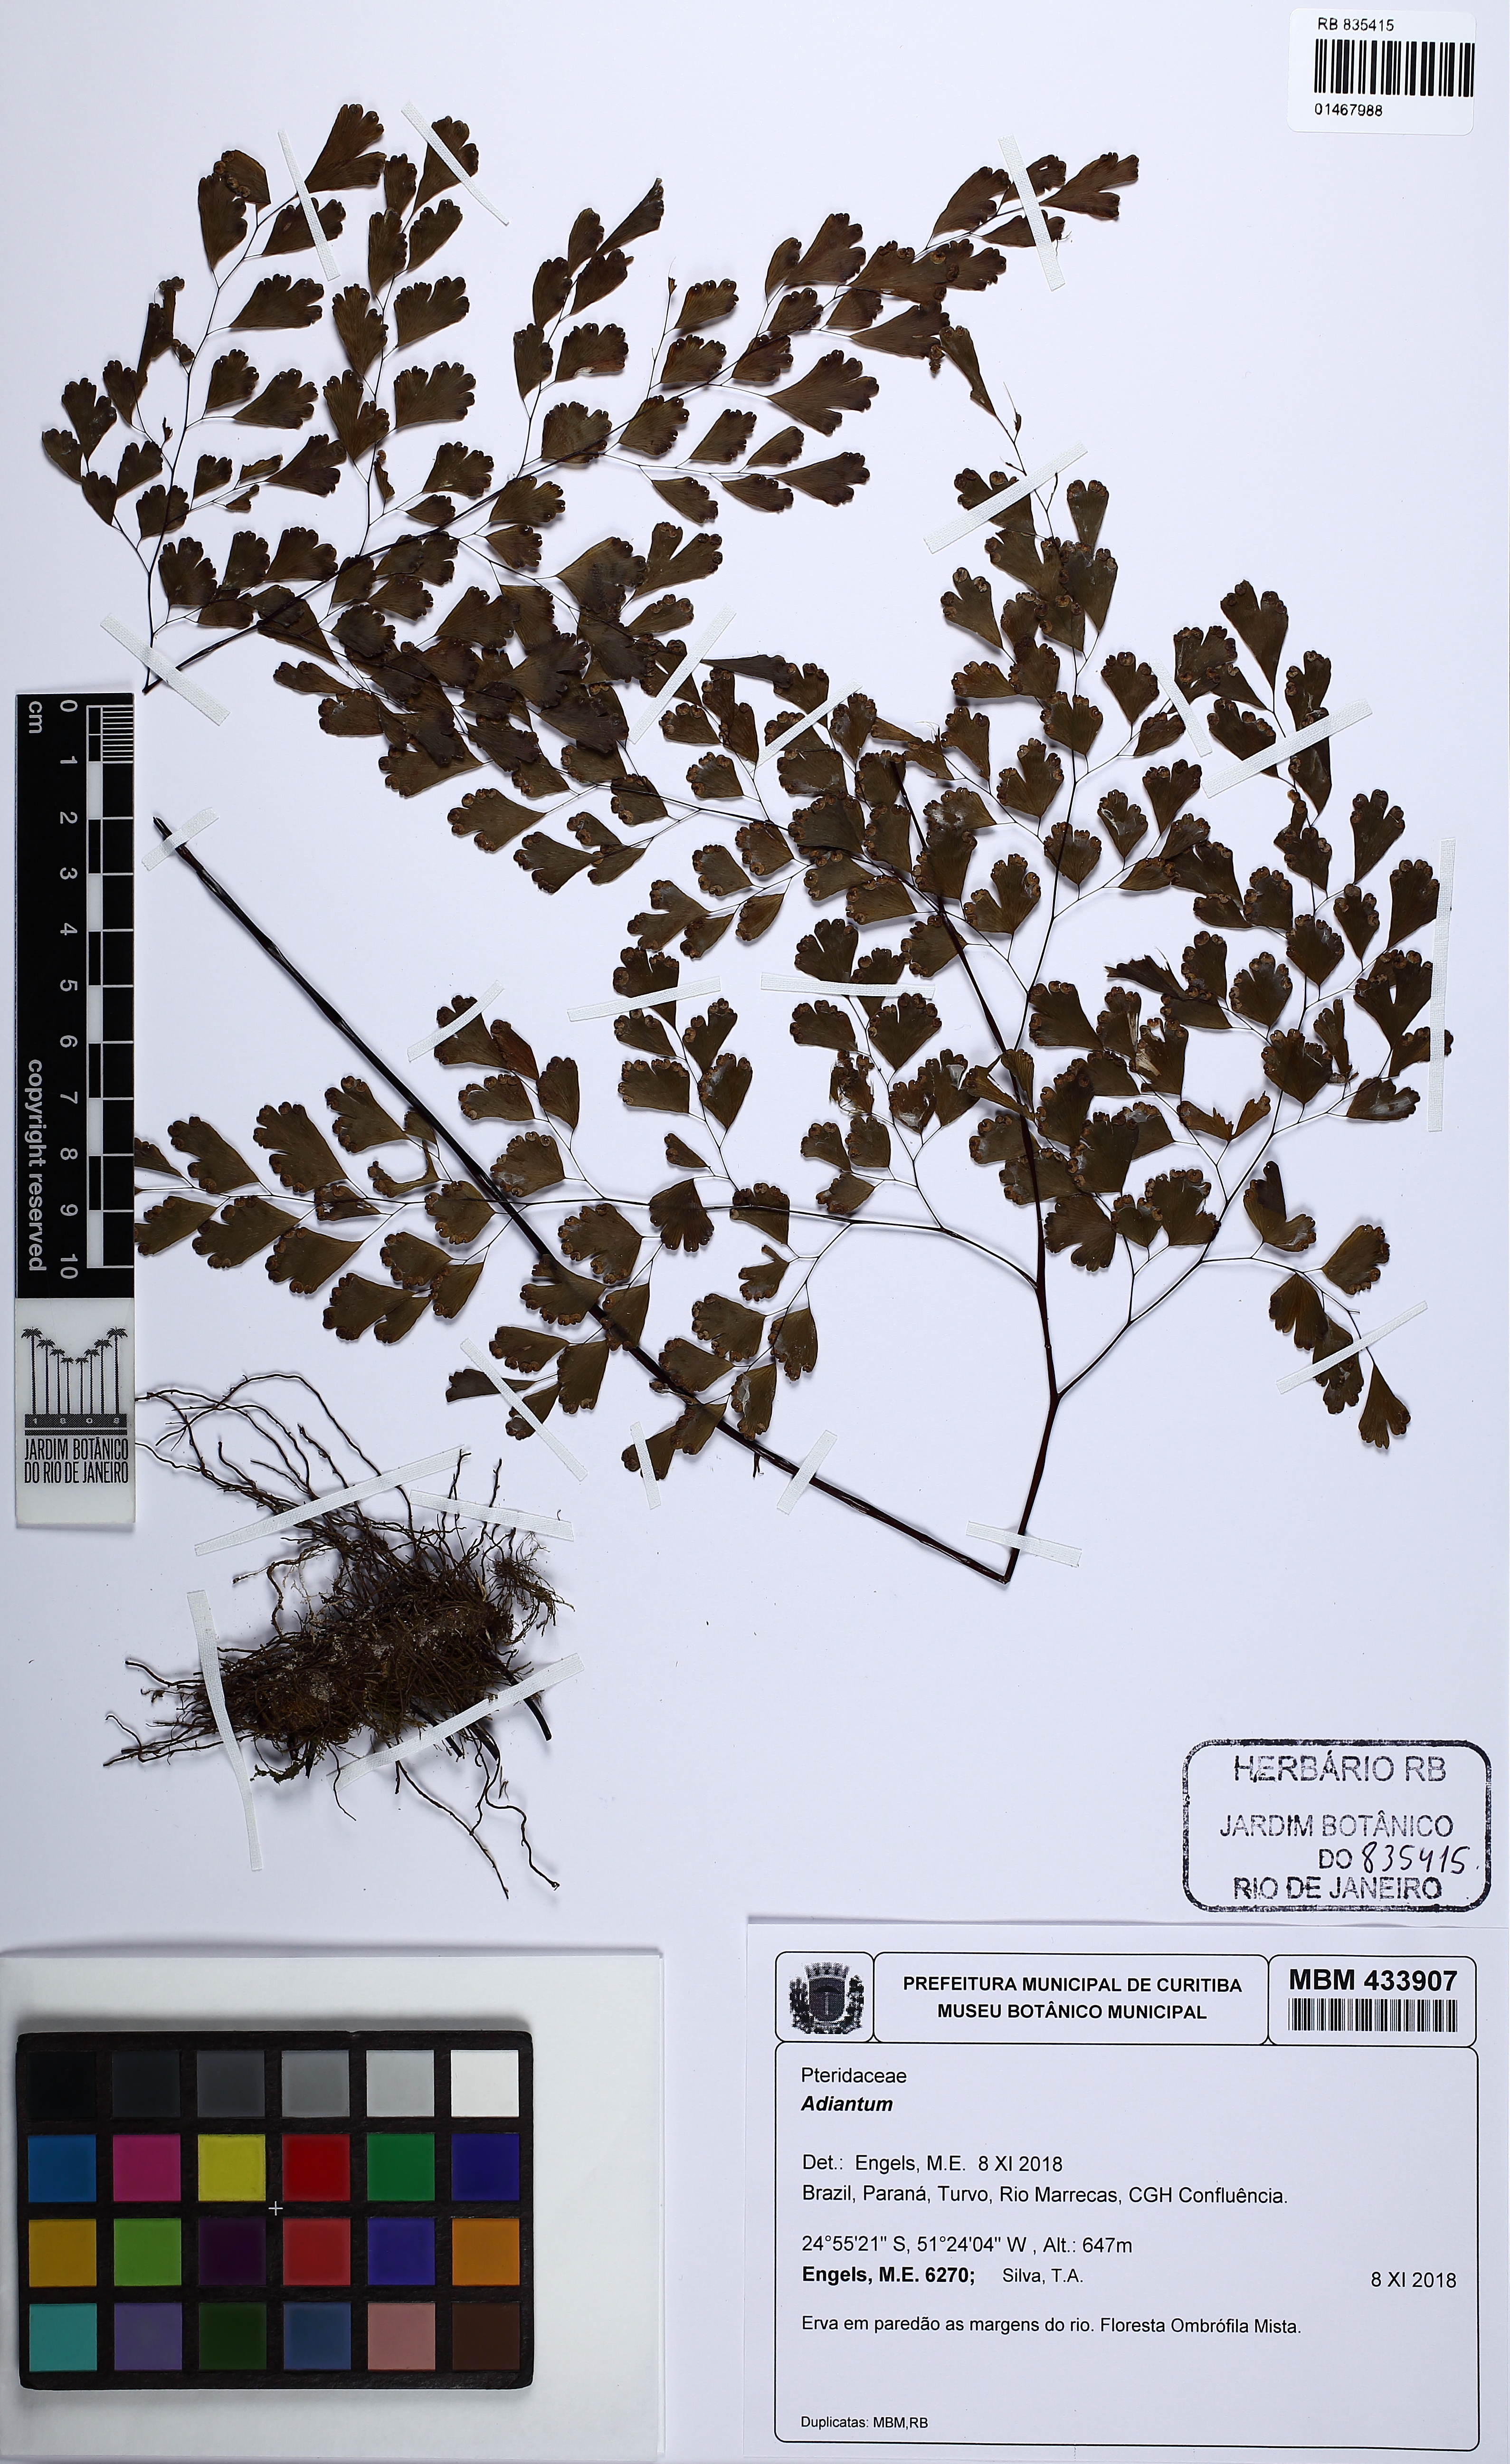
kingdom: Plantae
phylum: Tracheophyta
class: Polypodiopsida
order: Polypodiales
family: Pteridaceae
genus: Adiantum
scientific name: Adiantum
